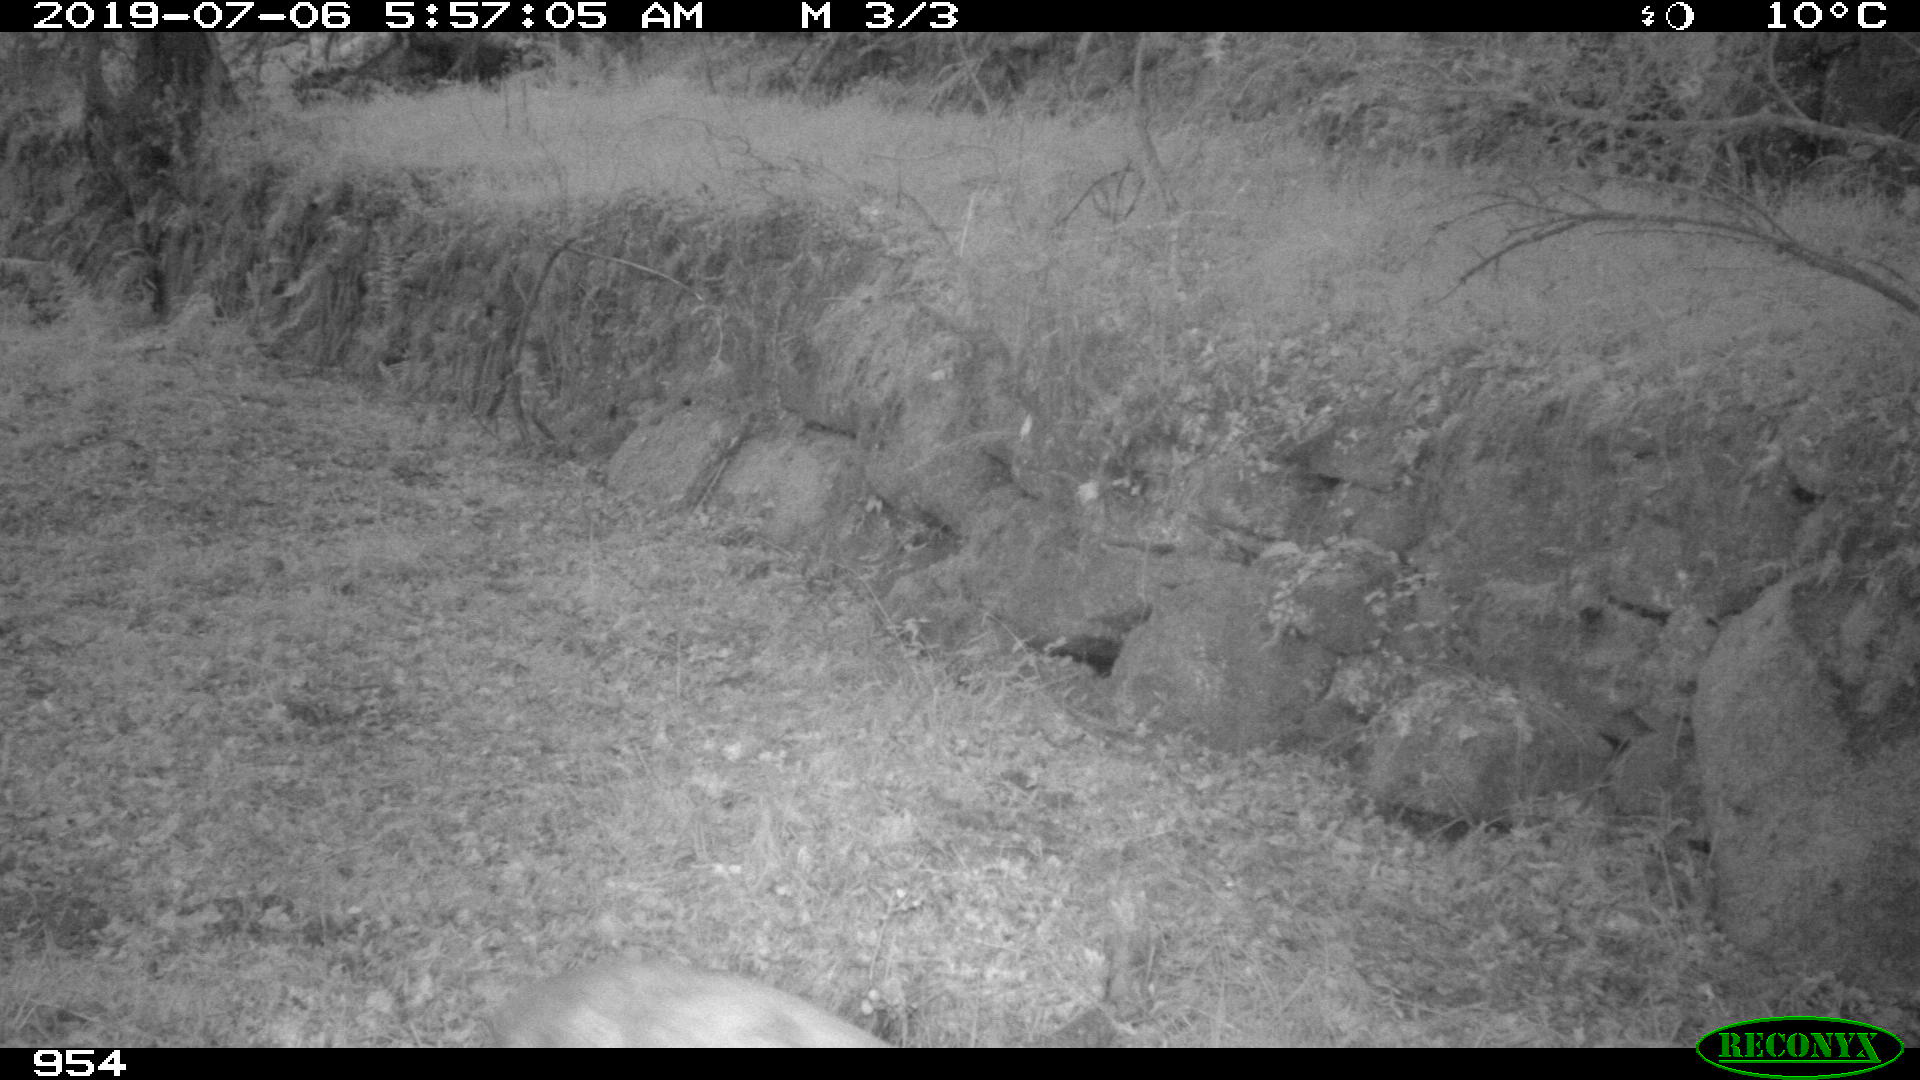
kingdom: Animalia
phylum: Chordata
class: Mammalia
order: Artiodactyla
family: Cervidae
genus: Capreolus
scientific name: Capreolus capreolus
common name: Western roe deer
